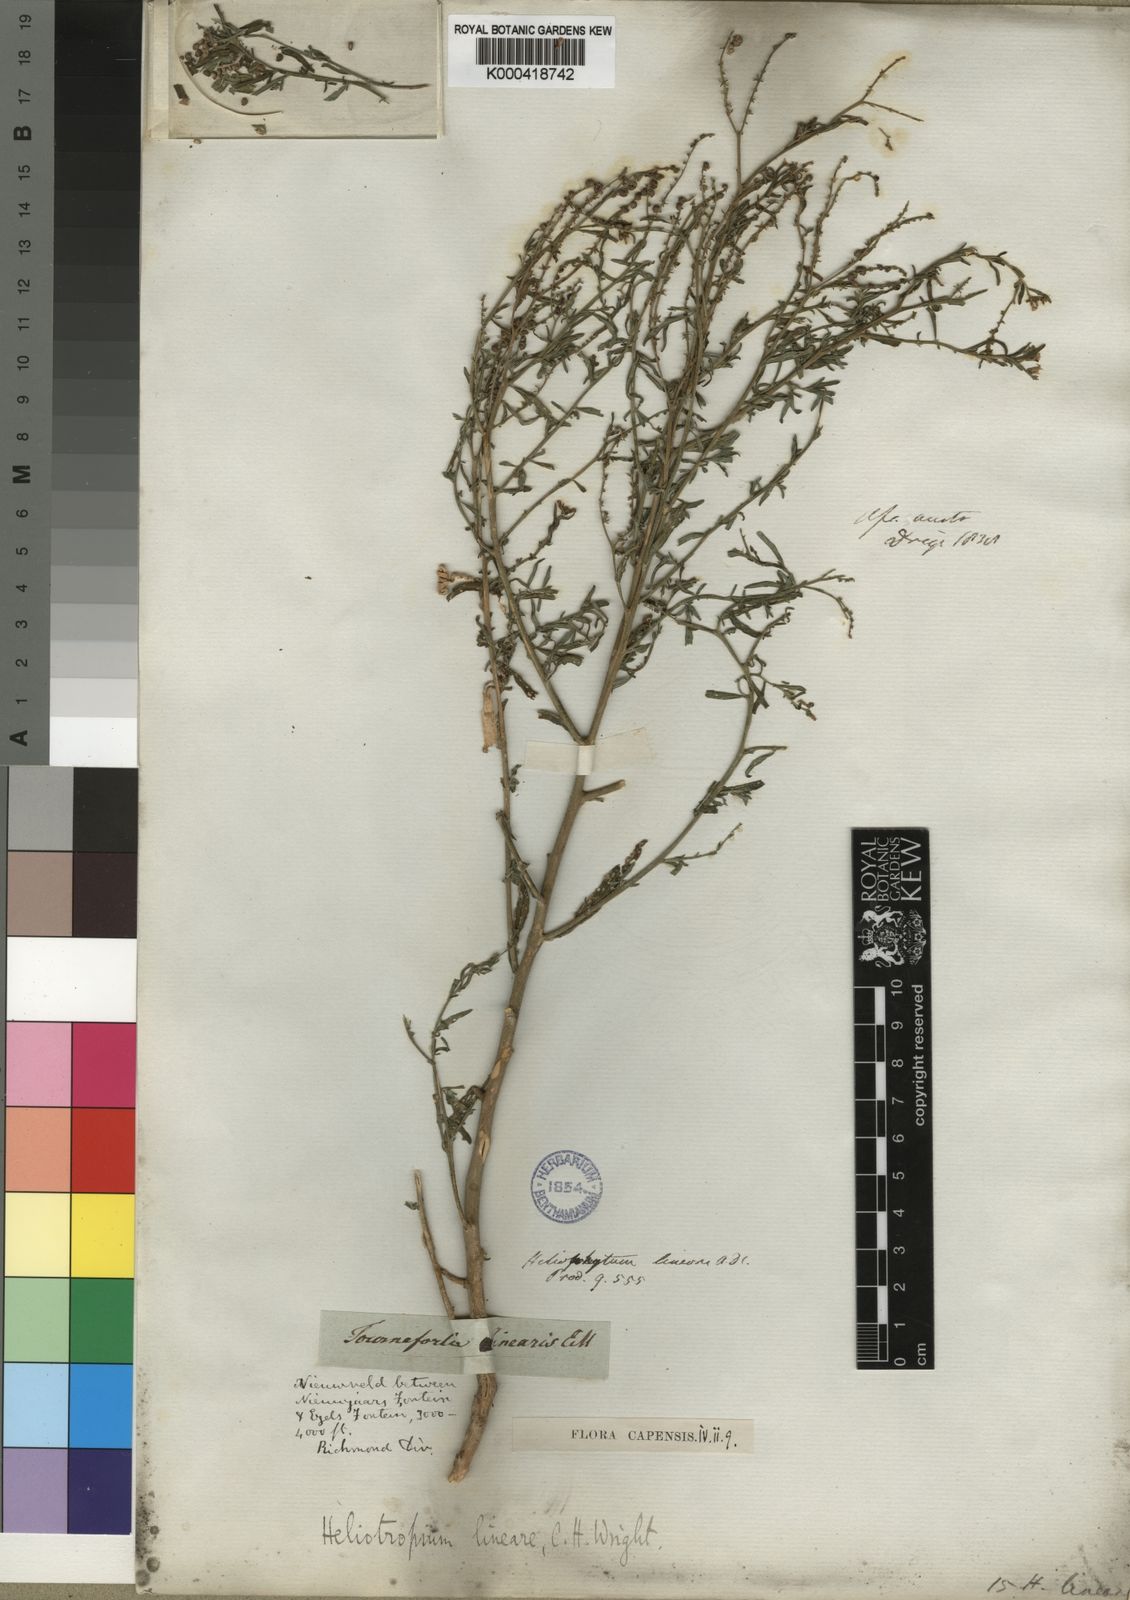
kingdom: Plantae
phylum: Tracheophyta
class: Magnoliopsida
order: Boraginales
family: Heliotropiaceae
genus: Heliotropium
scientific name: Heliotropium
